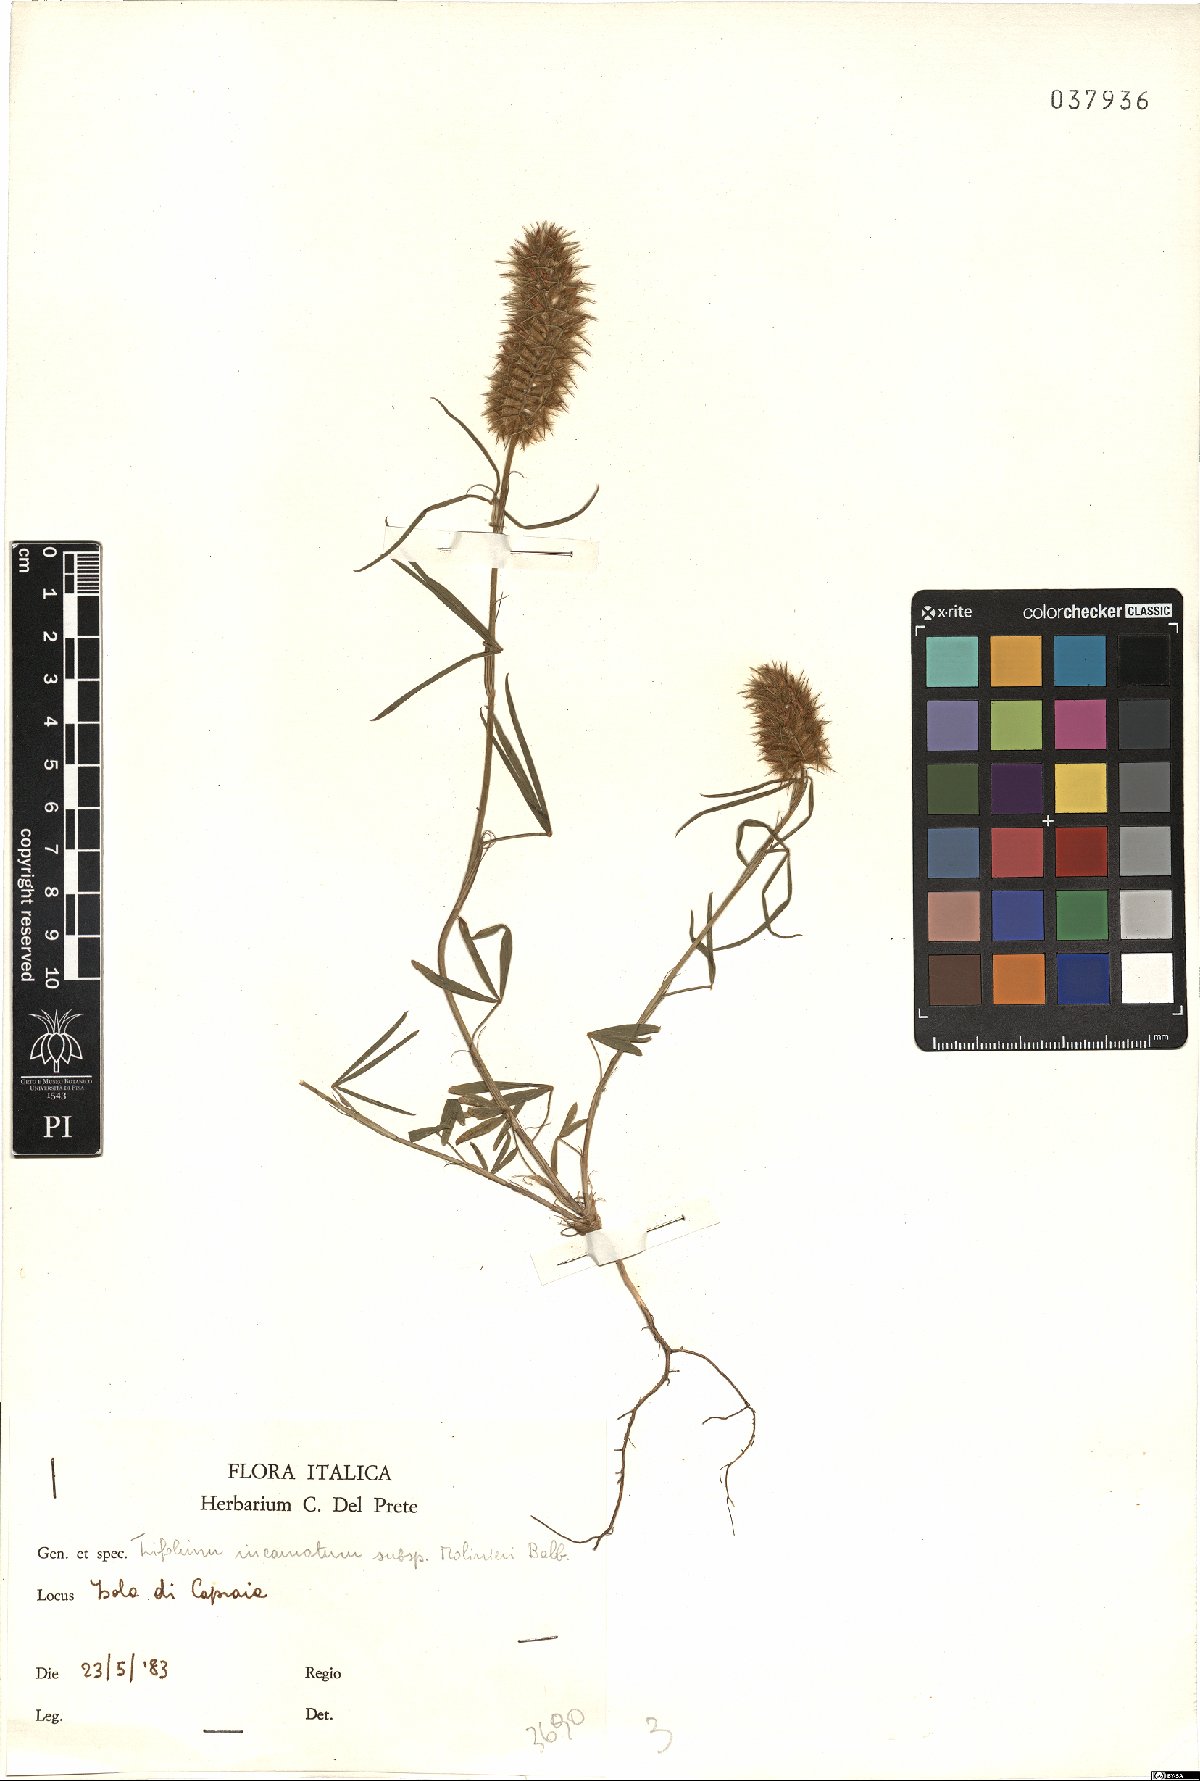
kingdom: Plantae
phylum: Tracheophyta
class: Magnoliopsida
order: Fabales
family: Fabaceae
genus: Trifolium
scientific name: Trifolium incarnatum
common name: Crimson clover
